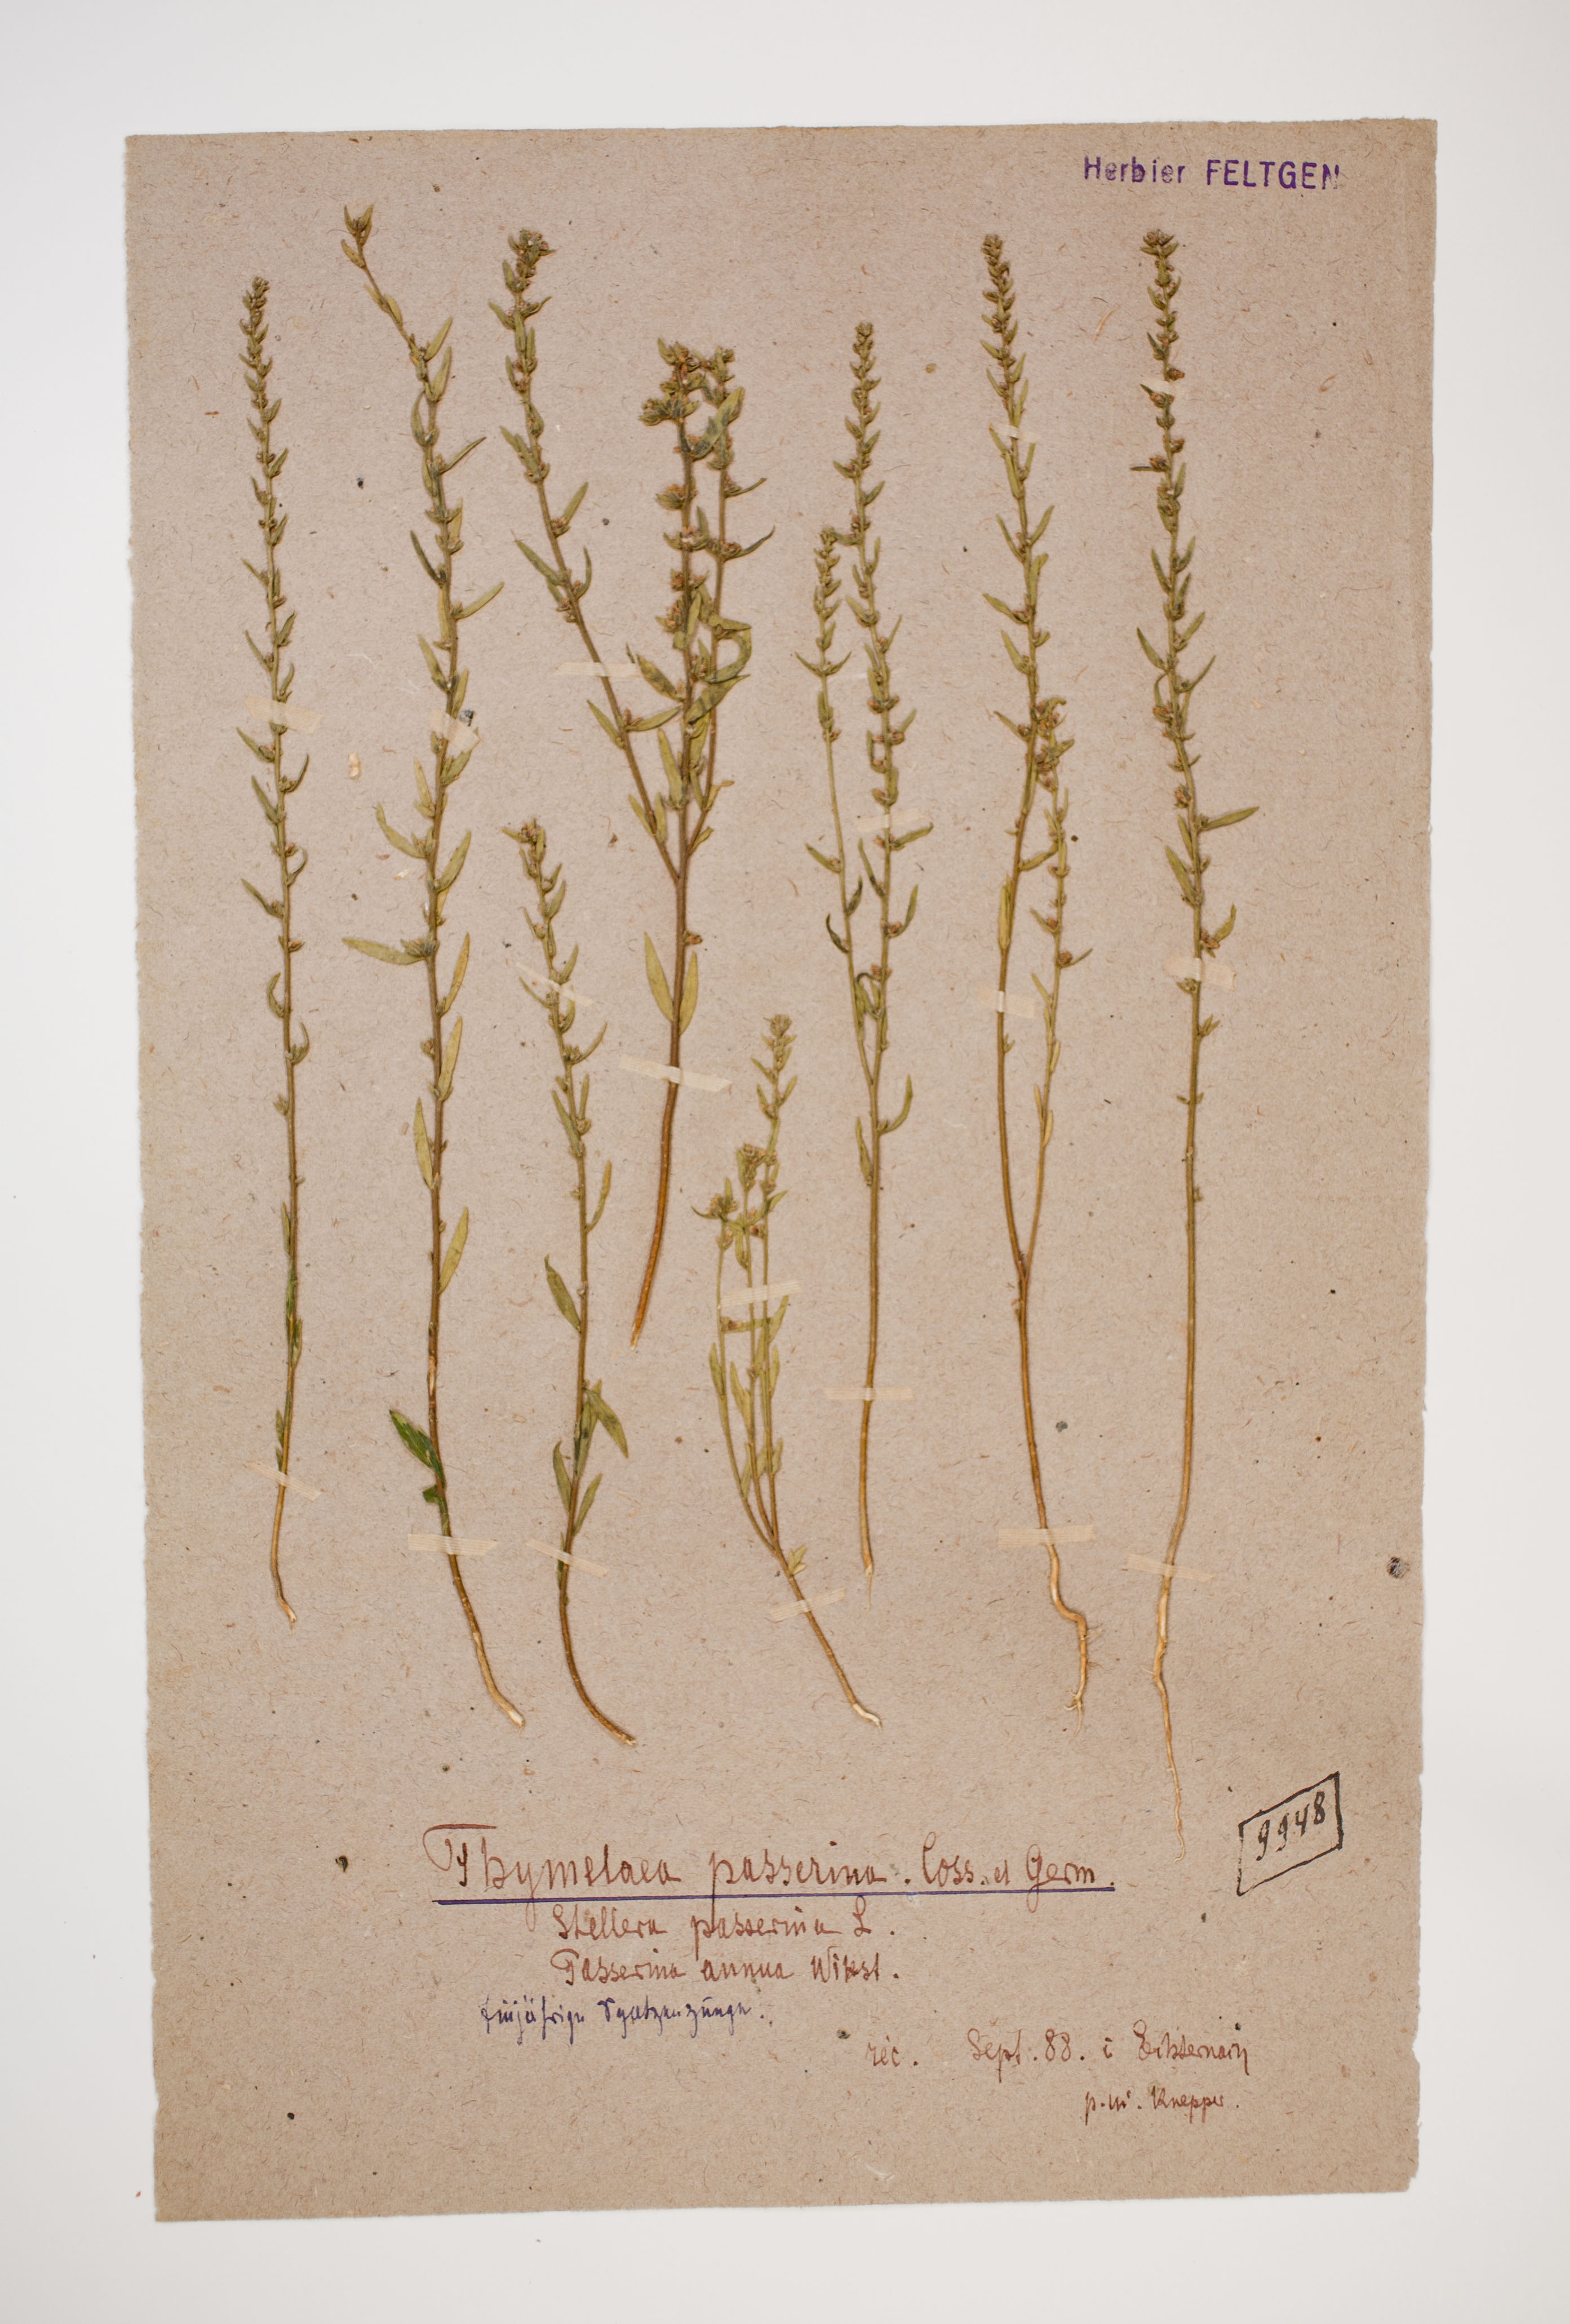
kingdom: Plantae
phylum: Tracheophyta
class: Magnoliopsida
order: Malvales
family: Thymelaeaceae
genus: Thymelaea
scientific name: Thymelaea passerina
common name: Annual thymelaea
